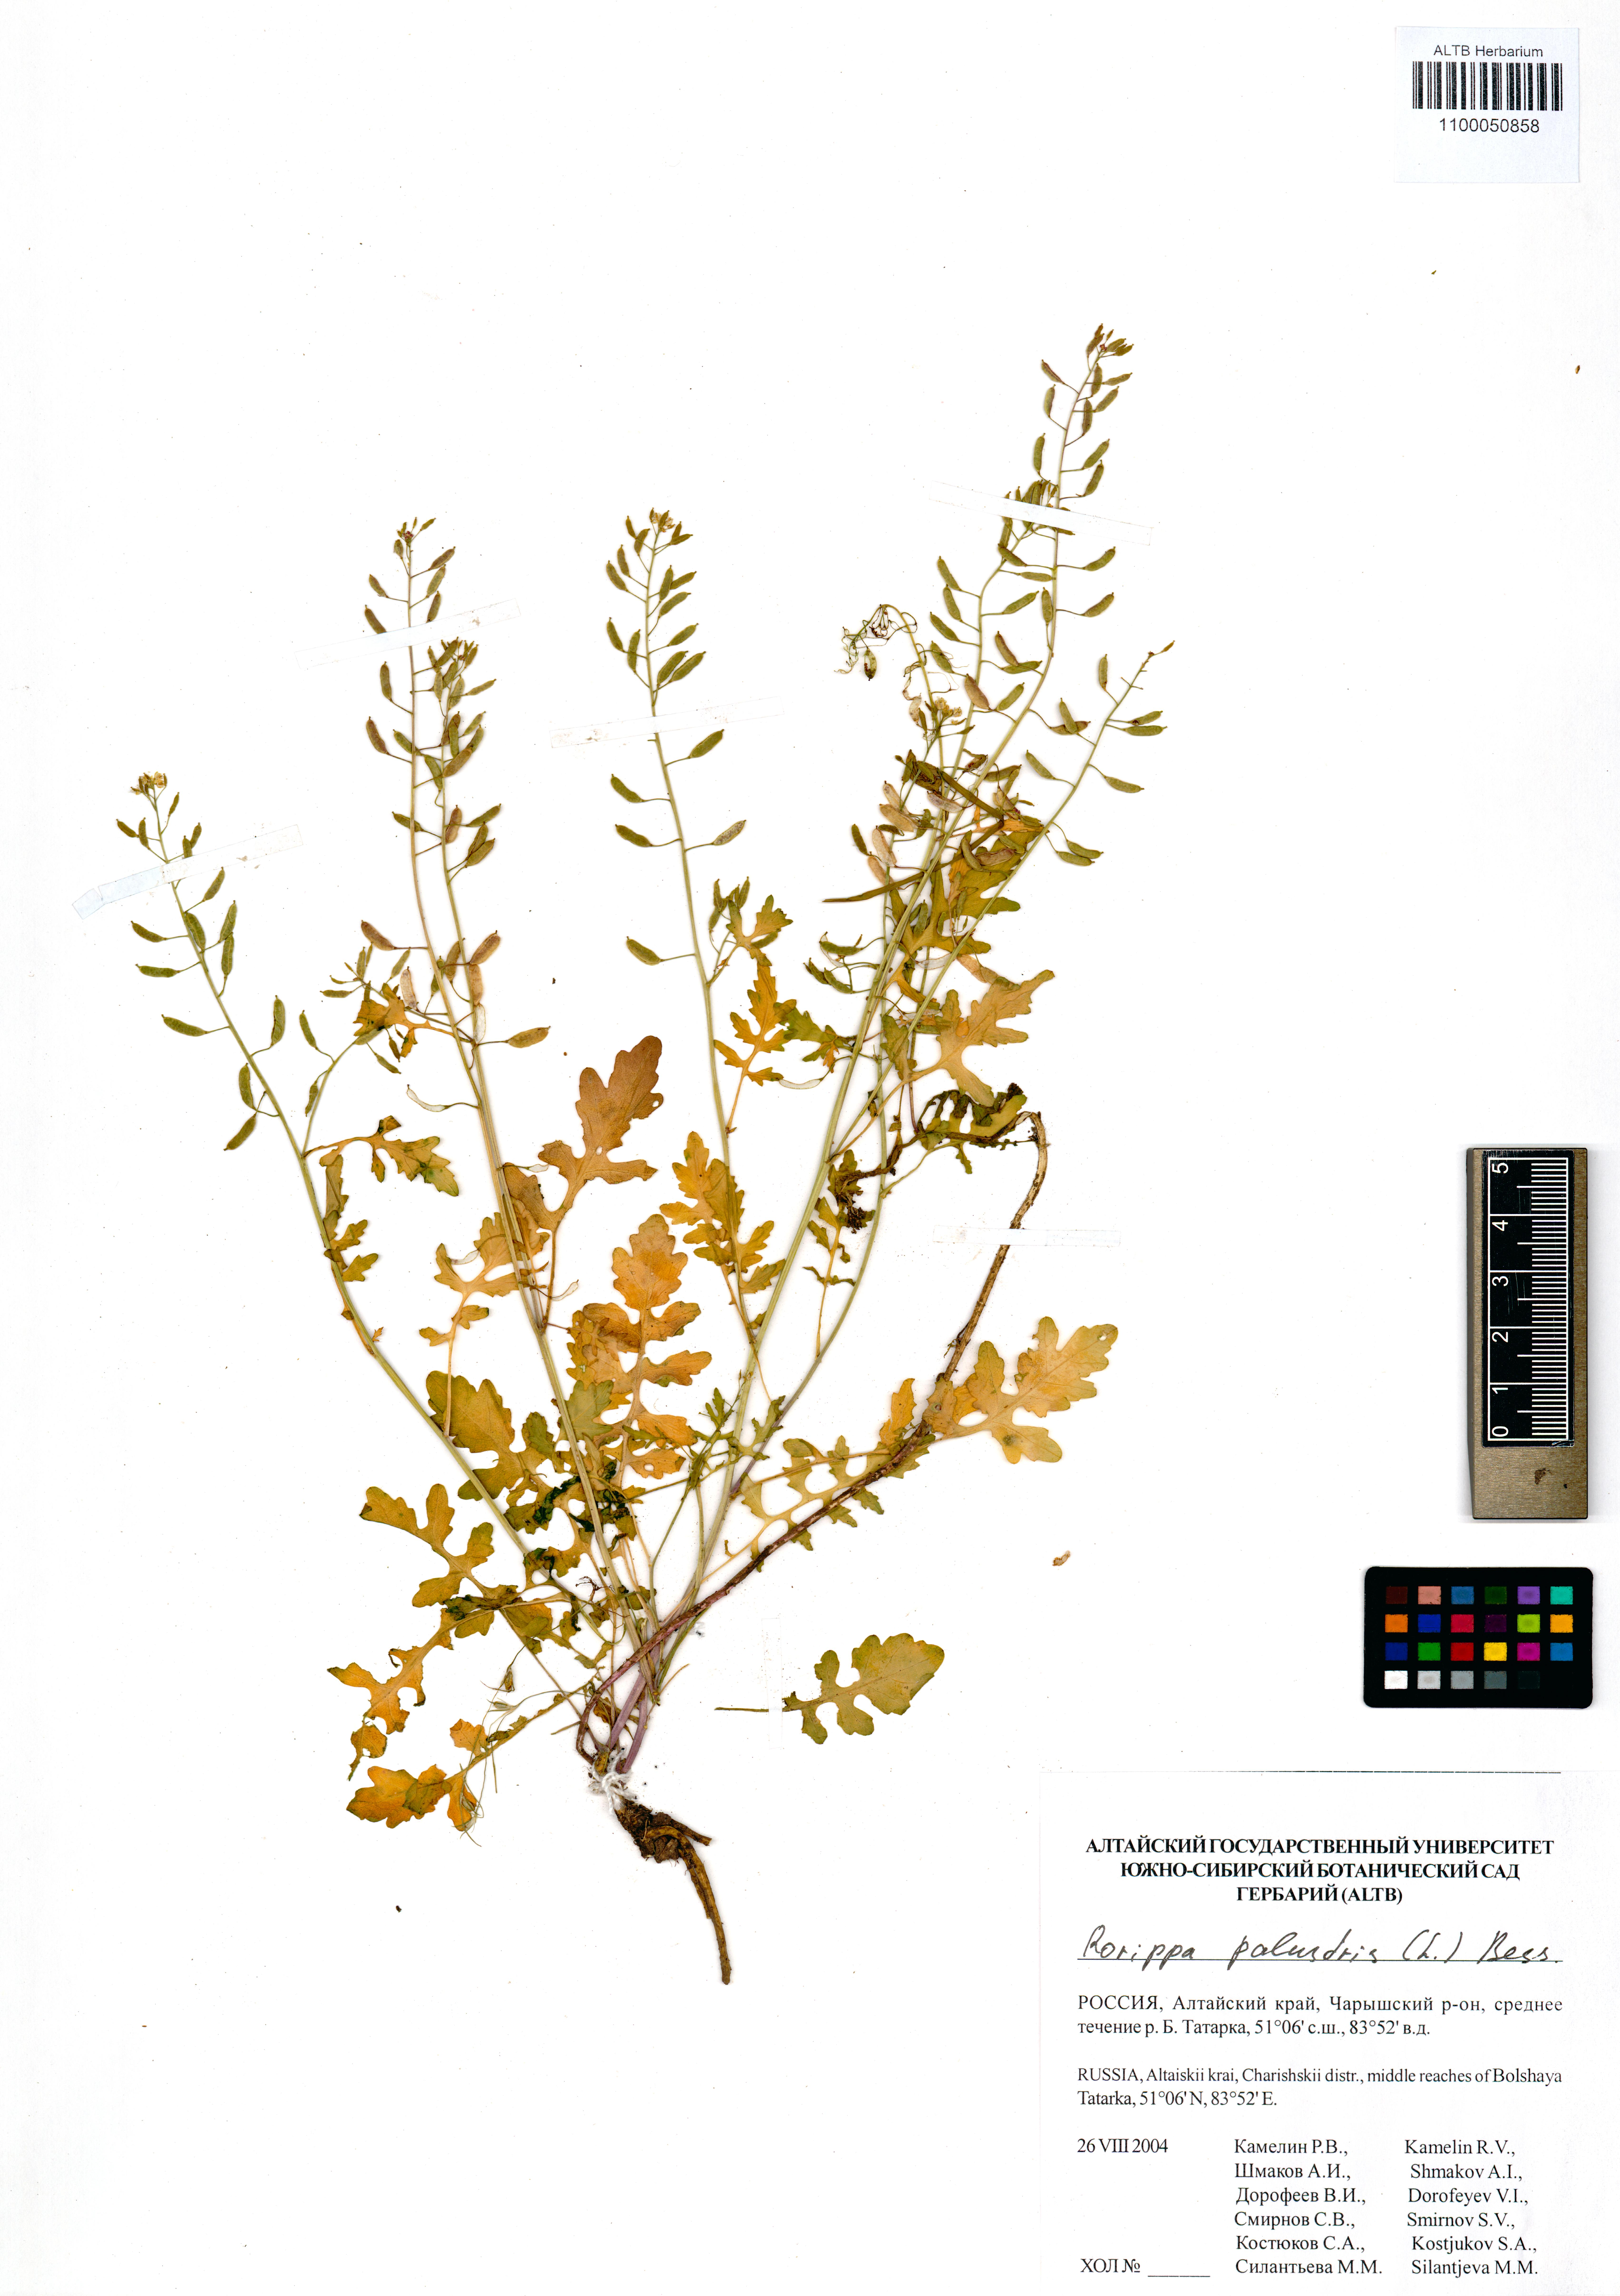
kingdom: Plantae
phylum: Tracheophyta
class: Magnoliopsida
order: Brassicales
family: Brassicaceae
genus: Rorippa
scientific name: Rorippa palustris
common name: Marsh yellow-cress
